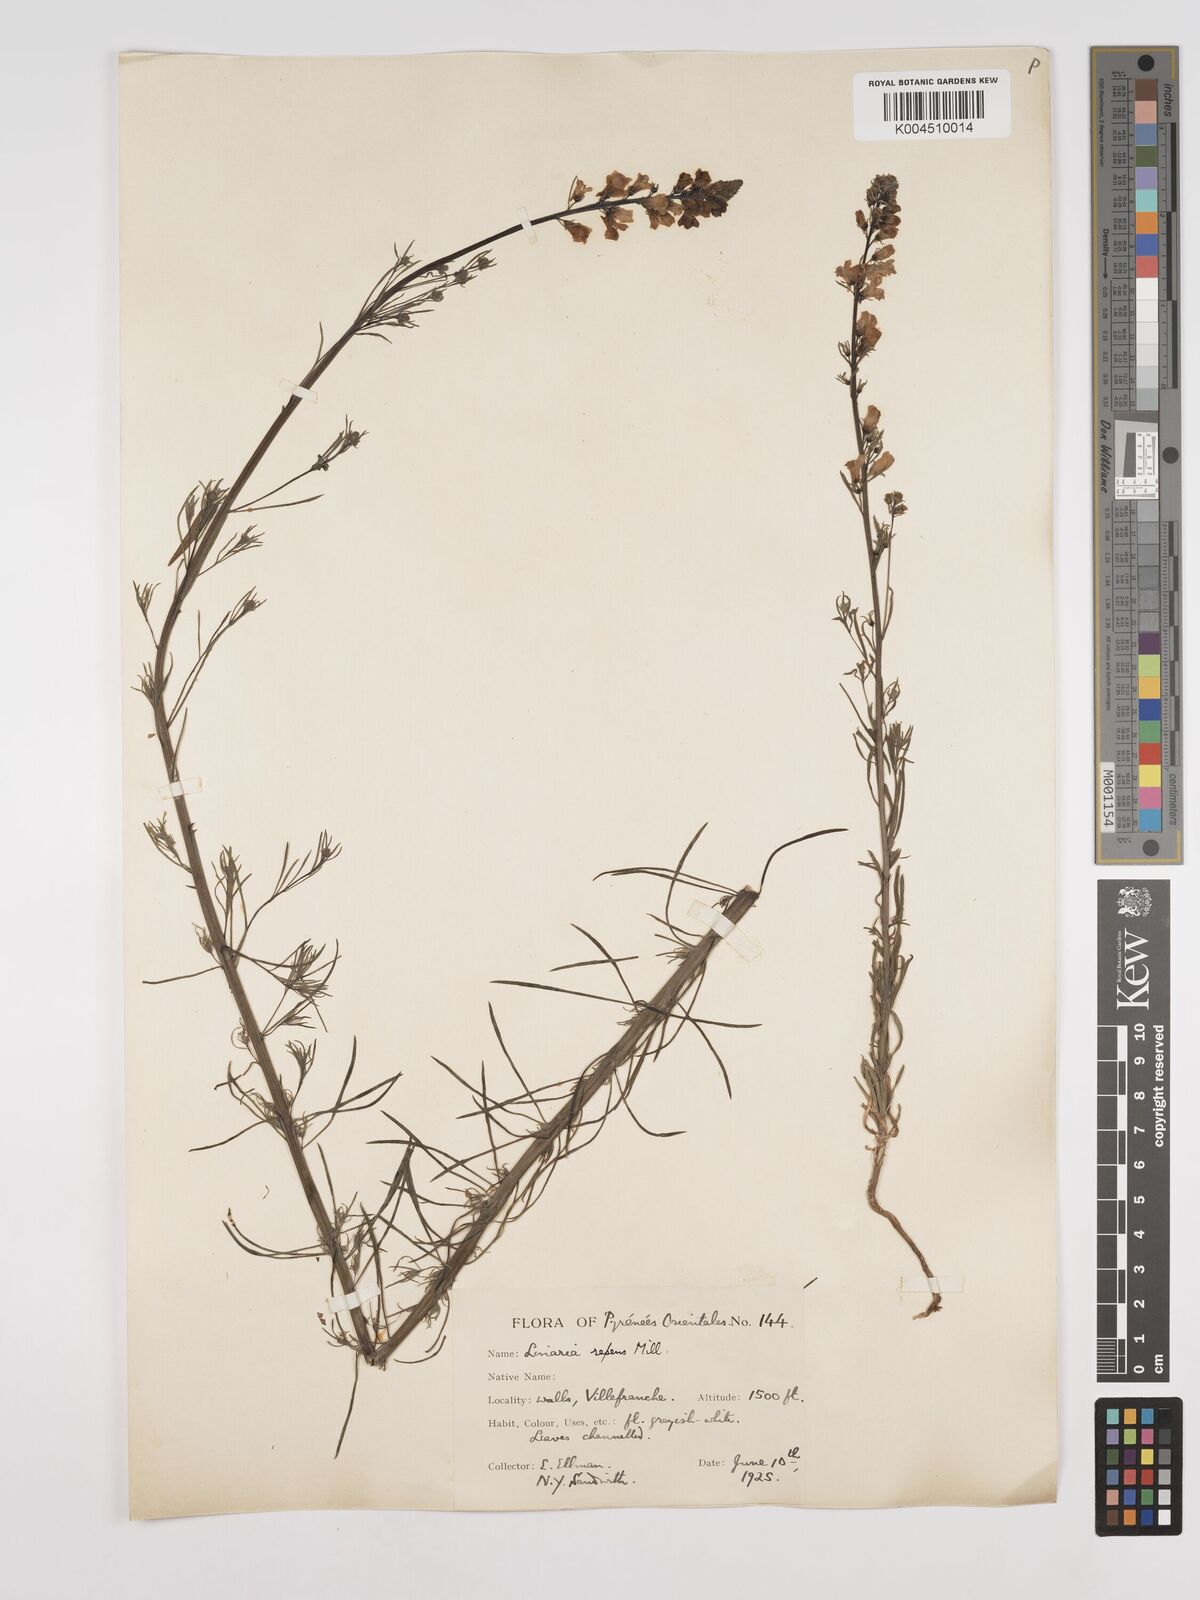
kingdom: Plantae
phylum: Tracheophyta
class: Magnoliopsida
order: Lamiales
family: Plantaginaceae
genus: Linaria
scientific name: Linaria repens
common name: Pale toadflax
